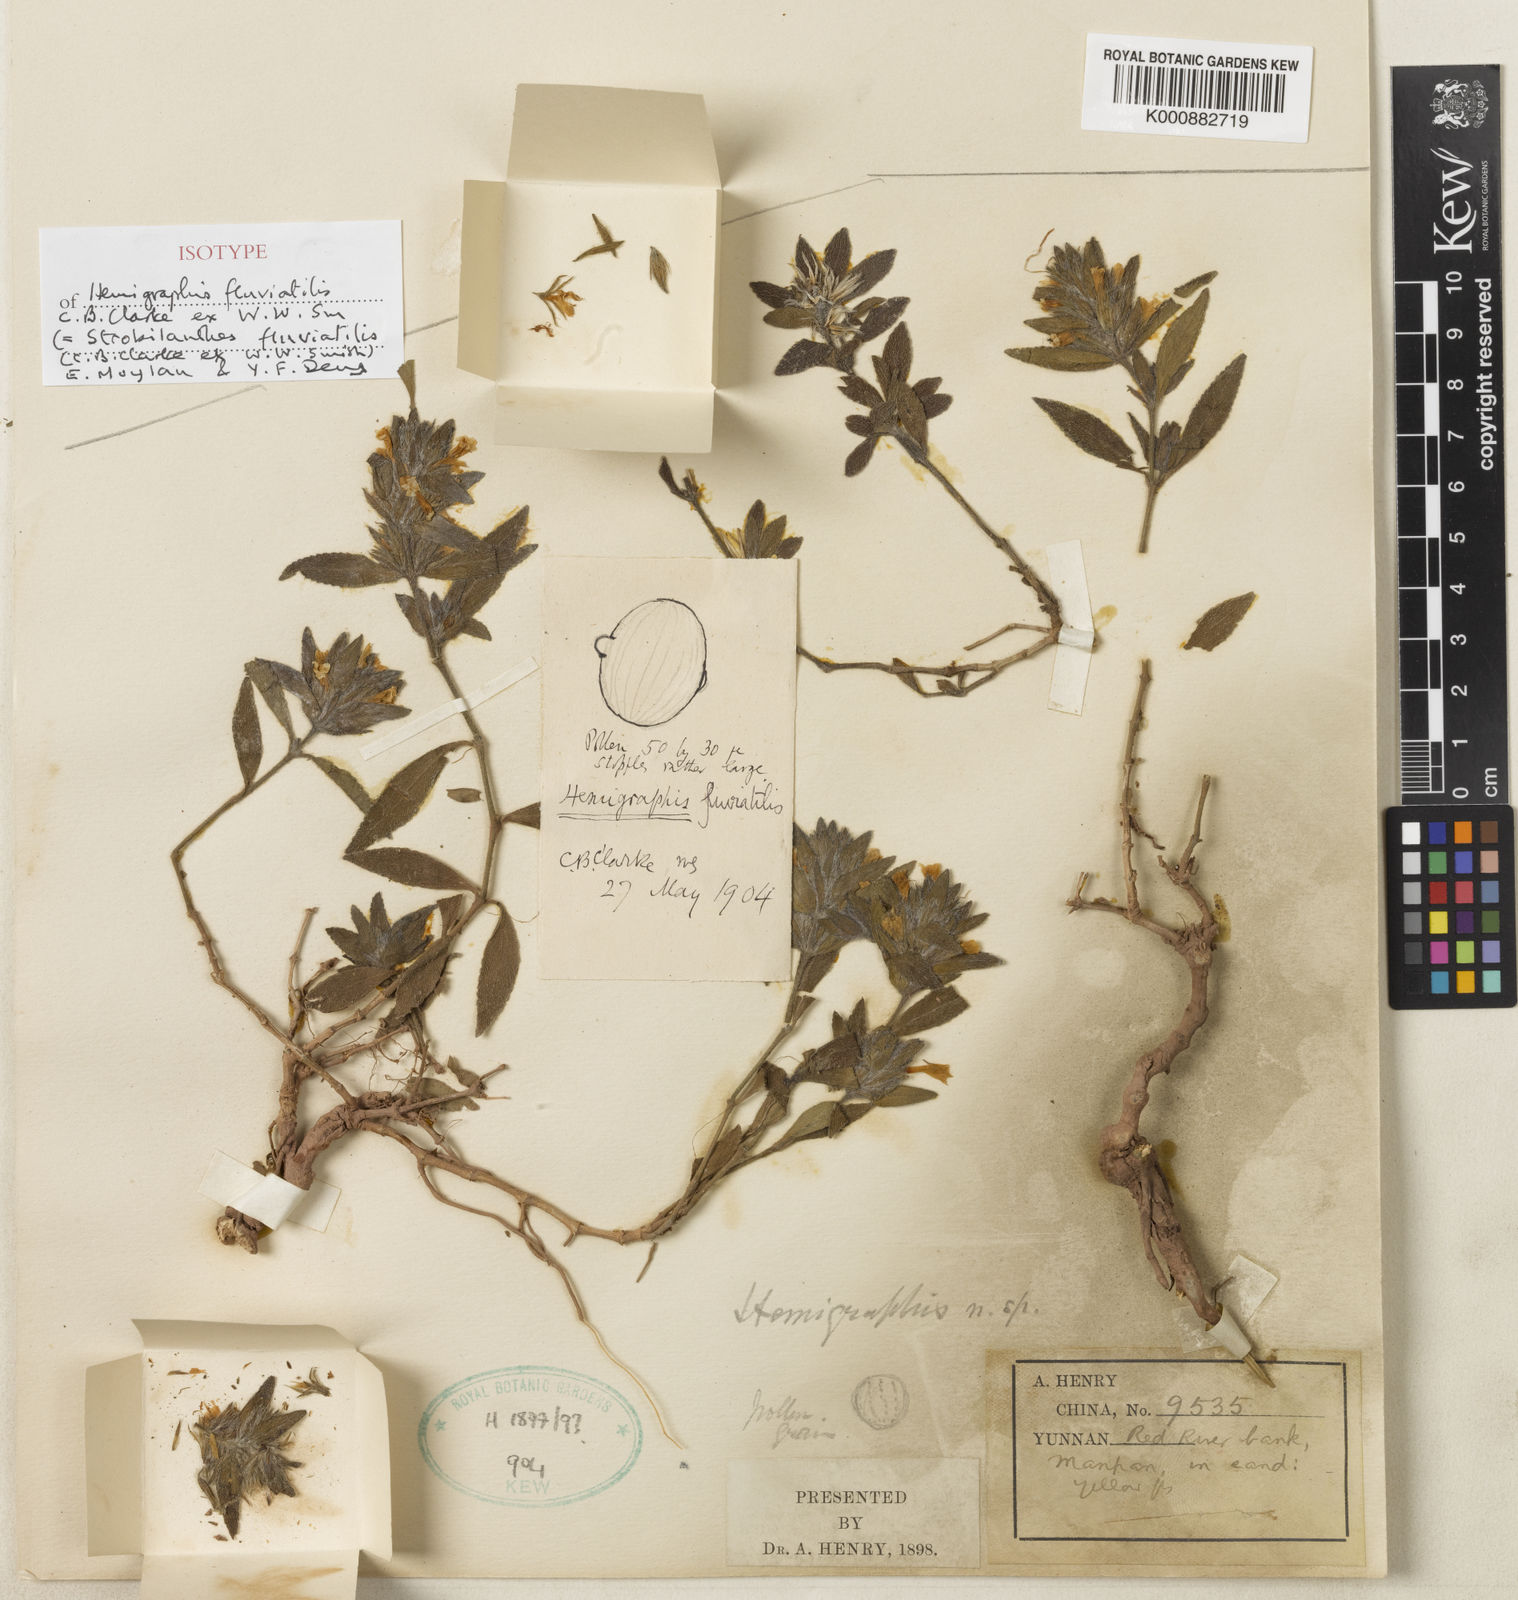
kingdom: Plantae
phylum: Tracheophyta
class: Magnoliopsida
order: Lamiales
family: Acanthaceae
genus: Strobilanthes
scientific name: Strobilanthes fluviatilis
